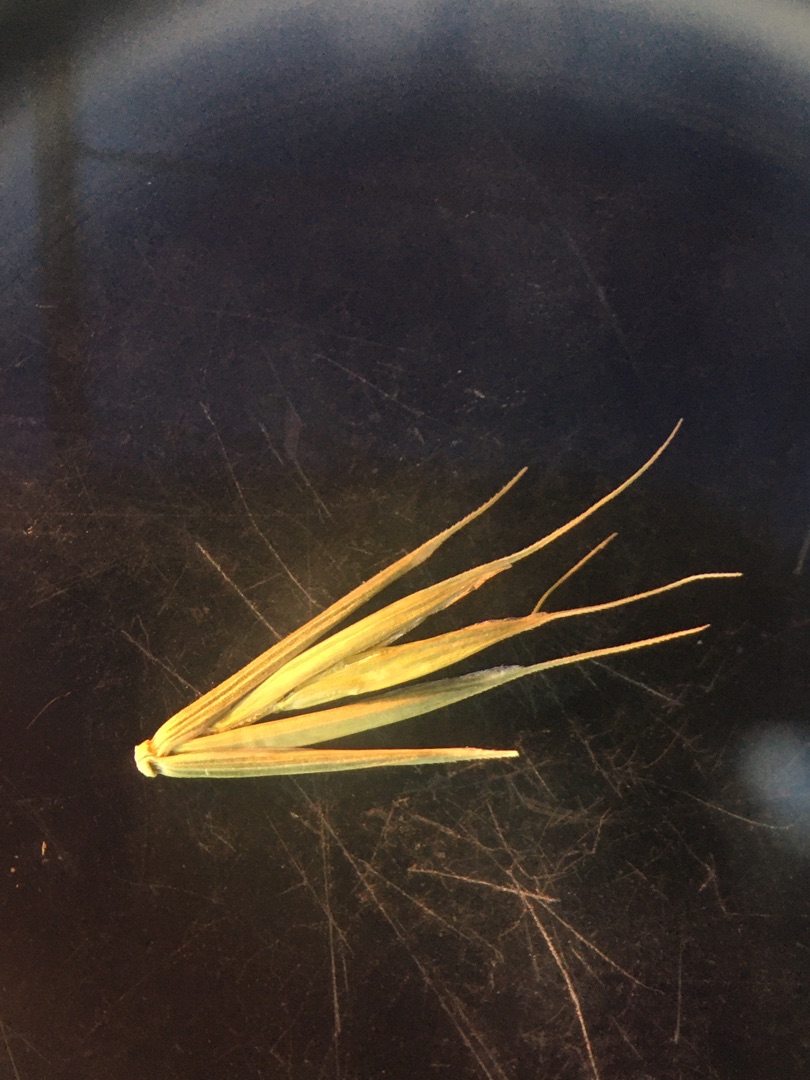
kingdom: Plantae
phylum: Tracheophyta
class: Liliopsida
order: Poales
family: Poaceae
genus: Elymus
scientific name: Elymus repens
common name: Almindelig kvik
